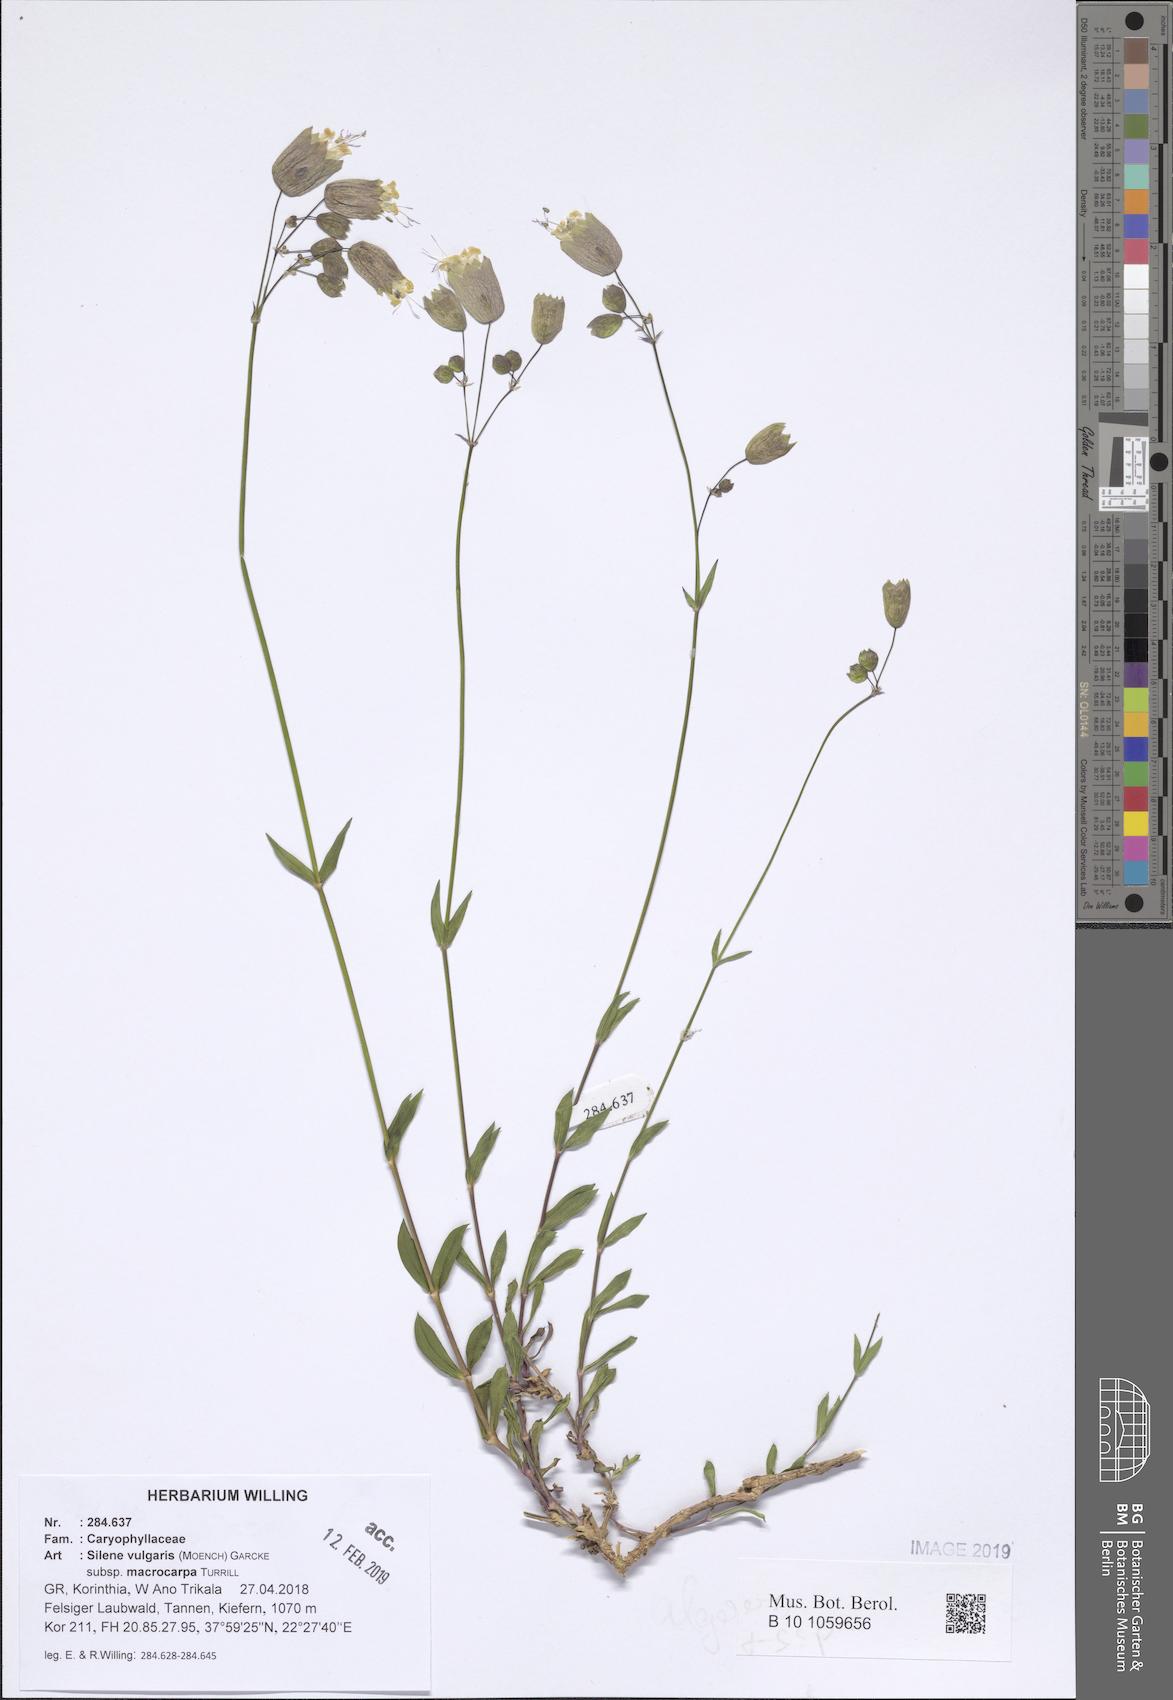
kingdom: Plantae
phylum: Tracheophyta
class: Magnoliopsida
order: Caryophyllales
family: Caryophyllaceae
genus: Silene
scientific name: Silene vulgaris
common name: Bladder campion
